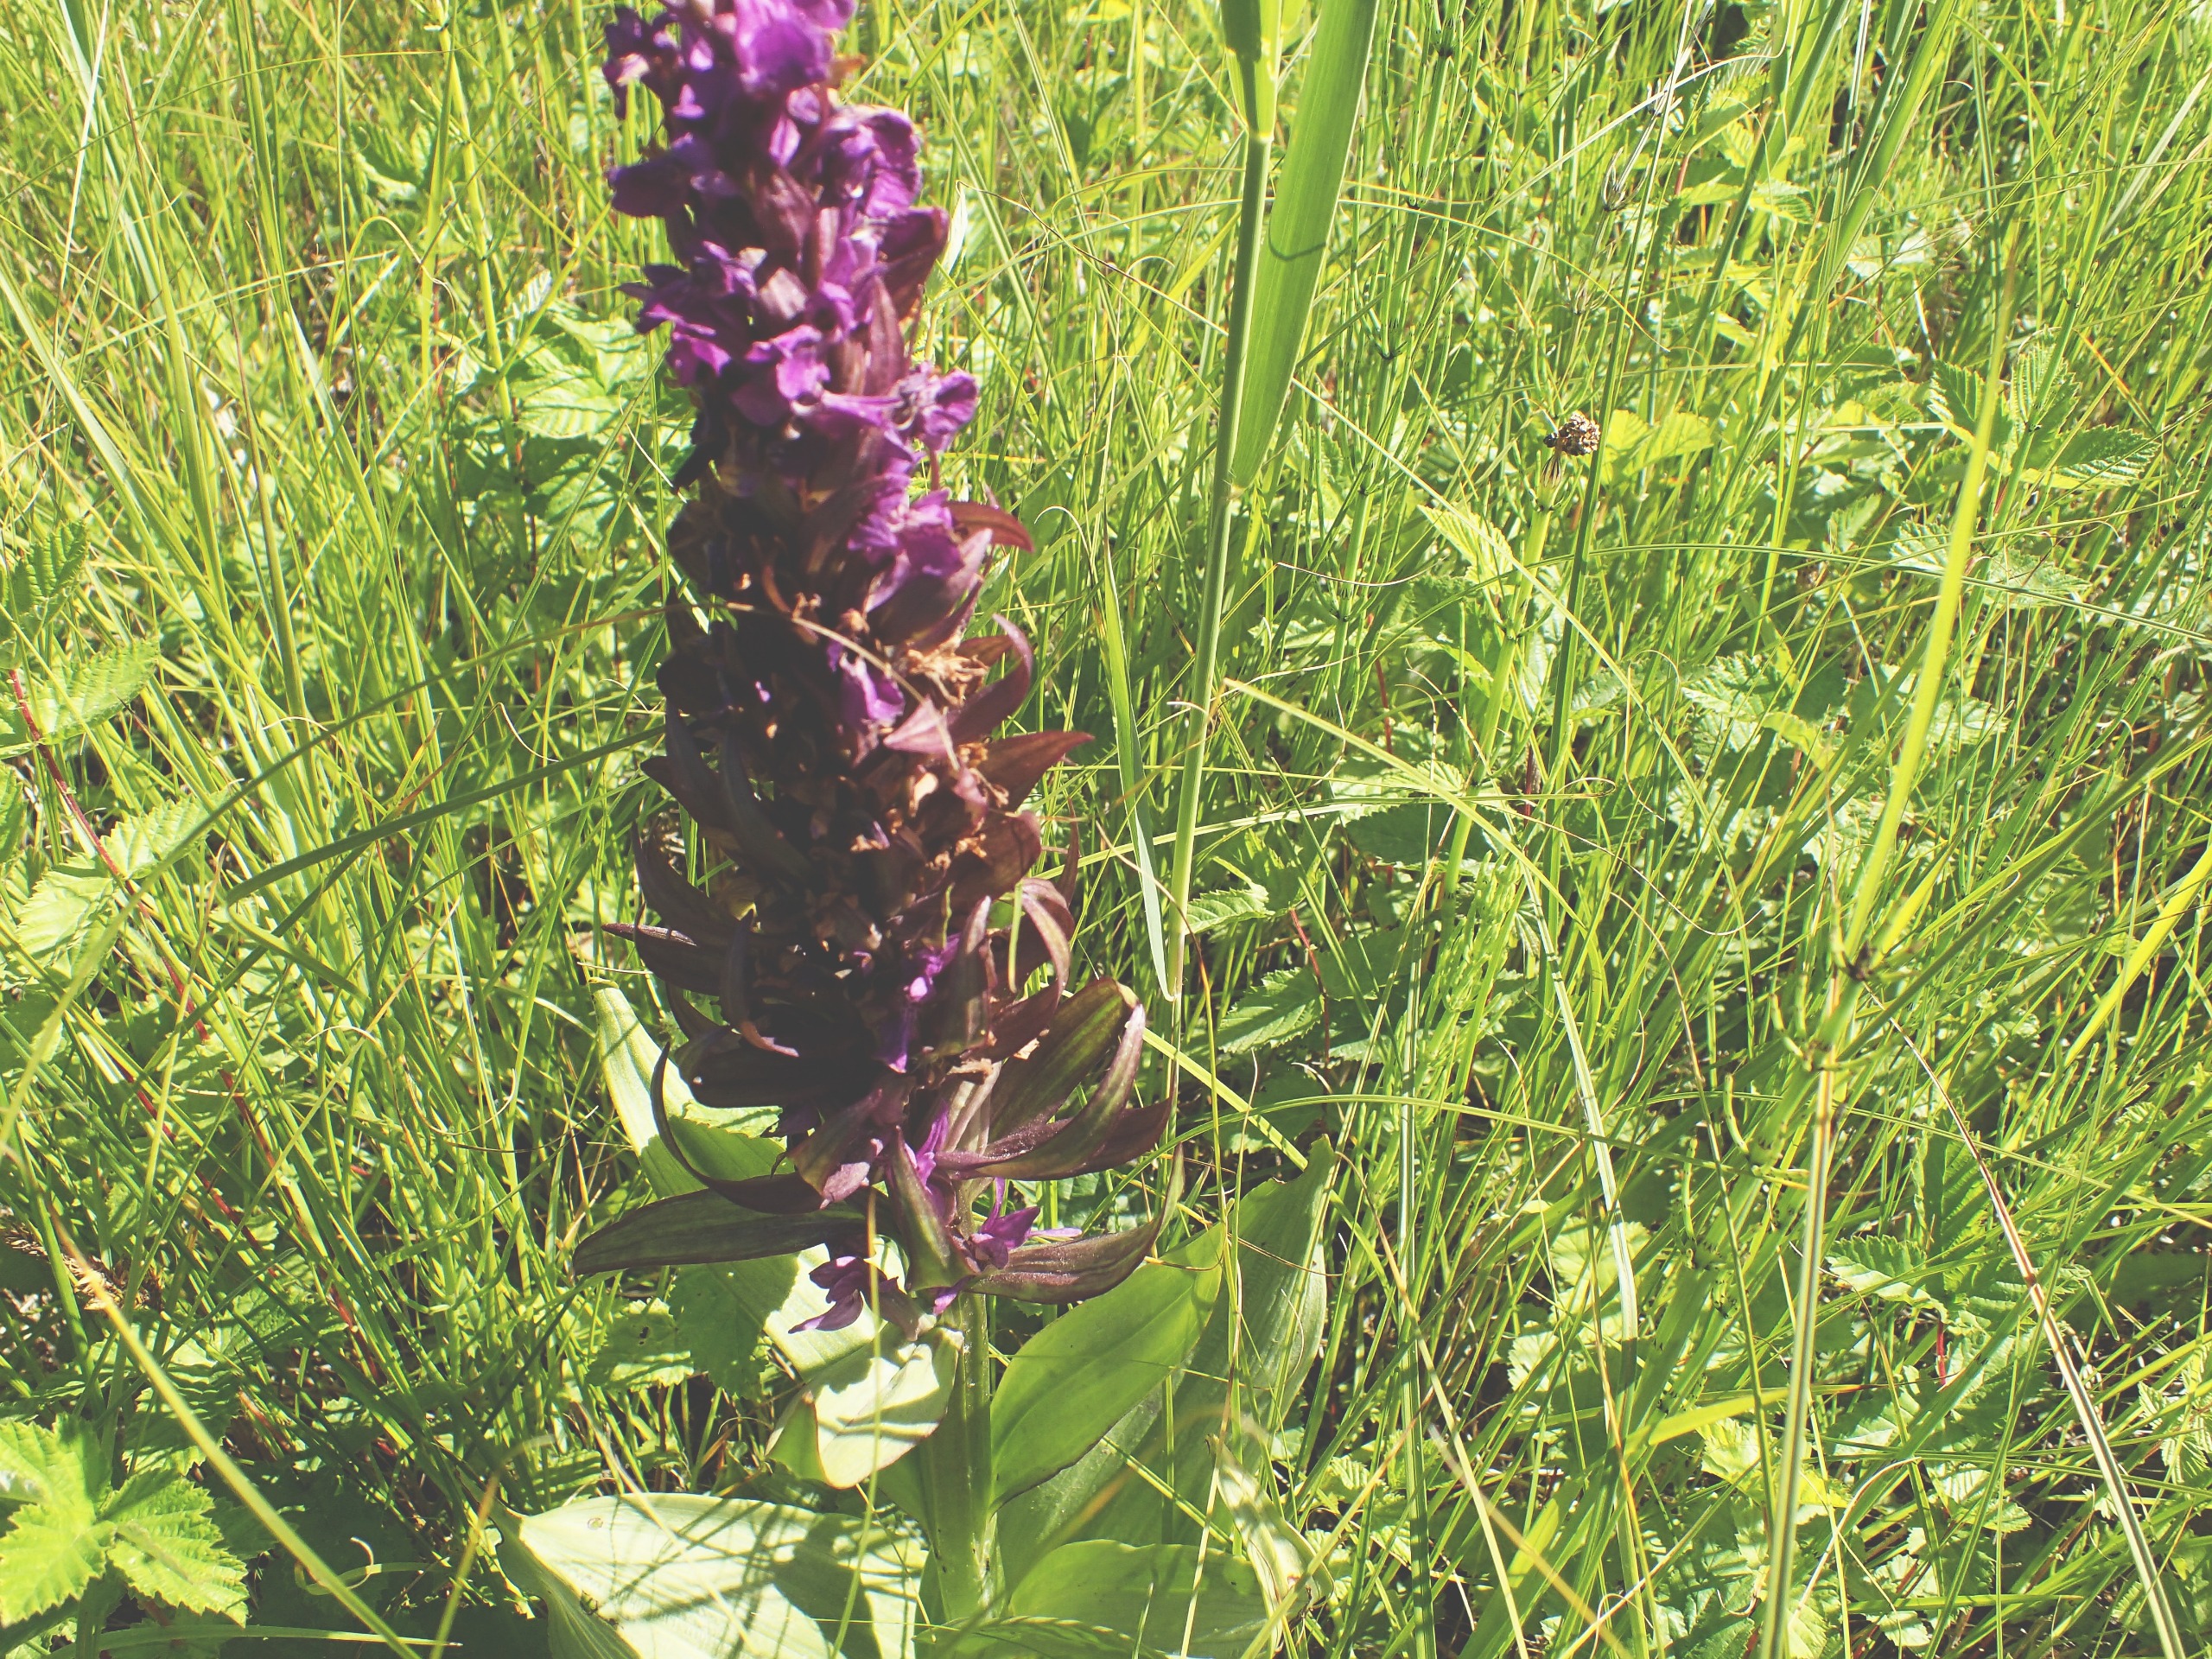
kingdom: Plantae
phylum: Tracheophyta
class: Liliopsida
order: Asparagales
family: Orchidaceae
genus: Dactylorhiza
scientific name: Dactylorhiza majalis
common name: Maj-gøgeurt
